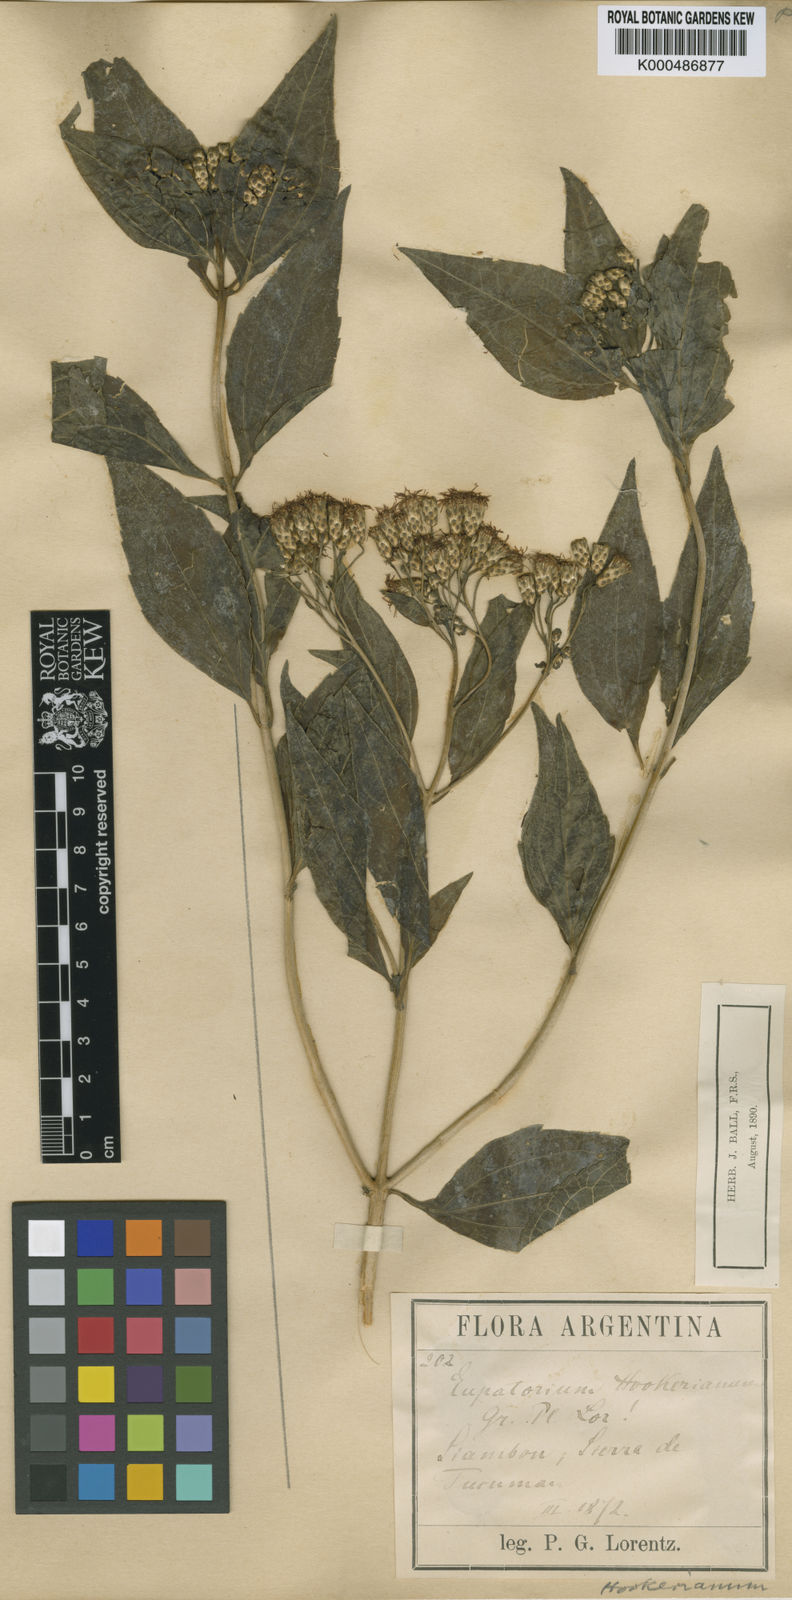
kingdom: Plantae
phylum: Tracheophyta
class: Magnoliopsida
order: Asterales
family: Asteraceae
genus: Chromolaena
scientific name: Chromolaena odorata
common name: Siamweed
